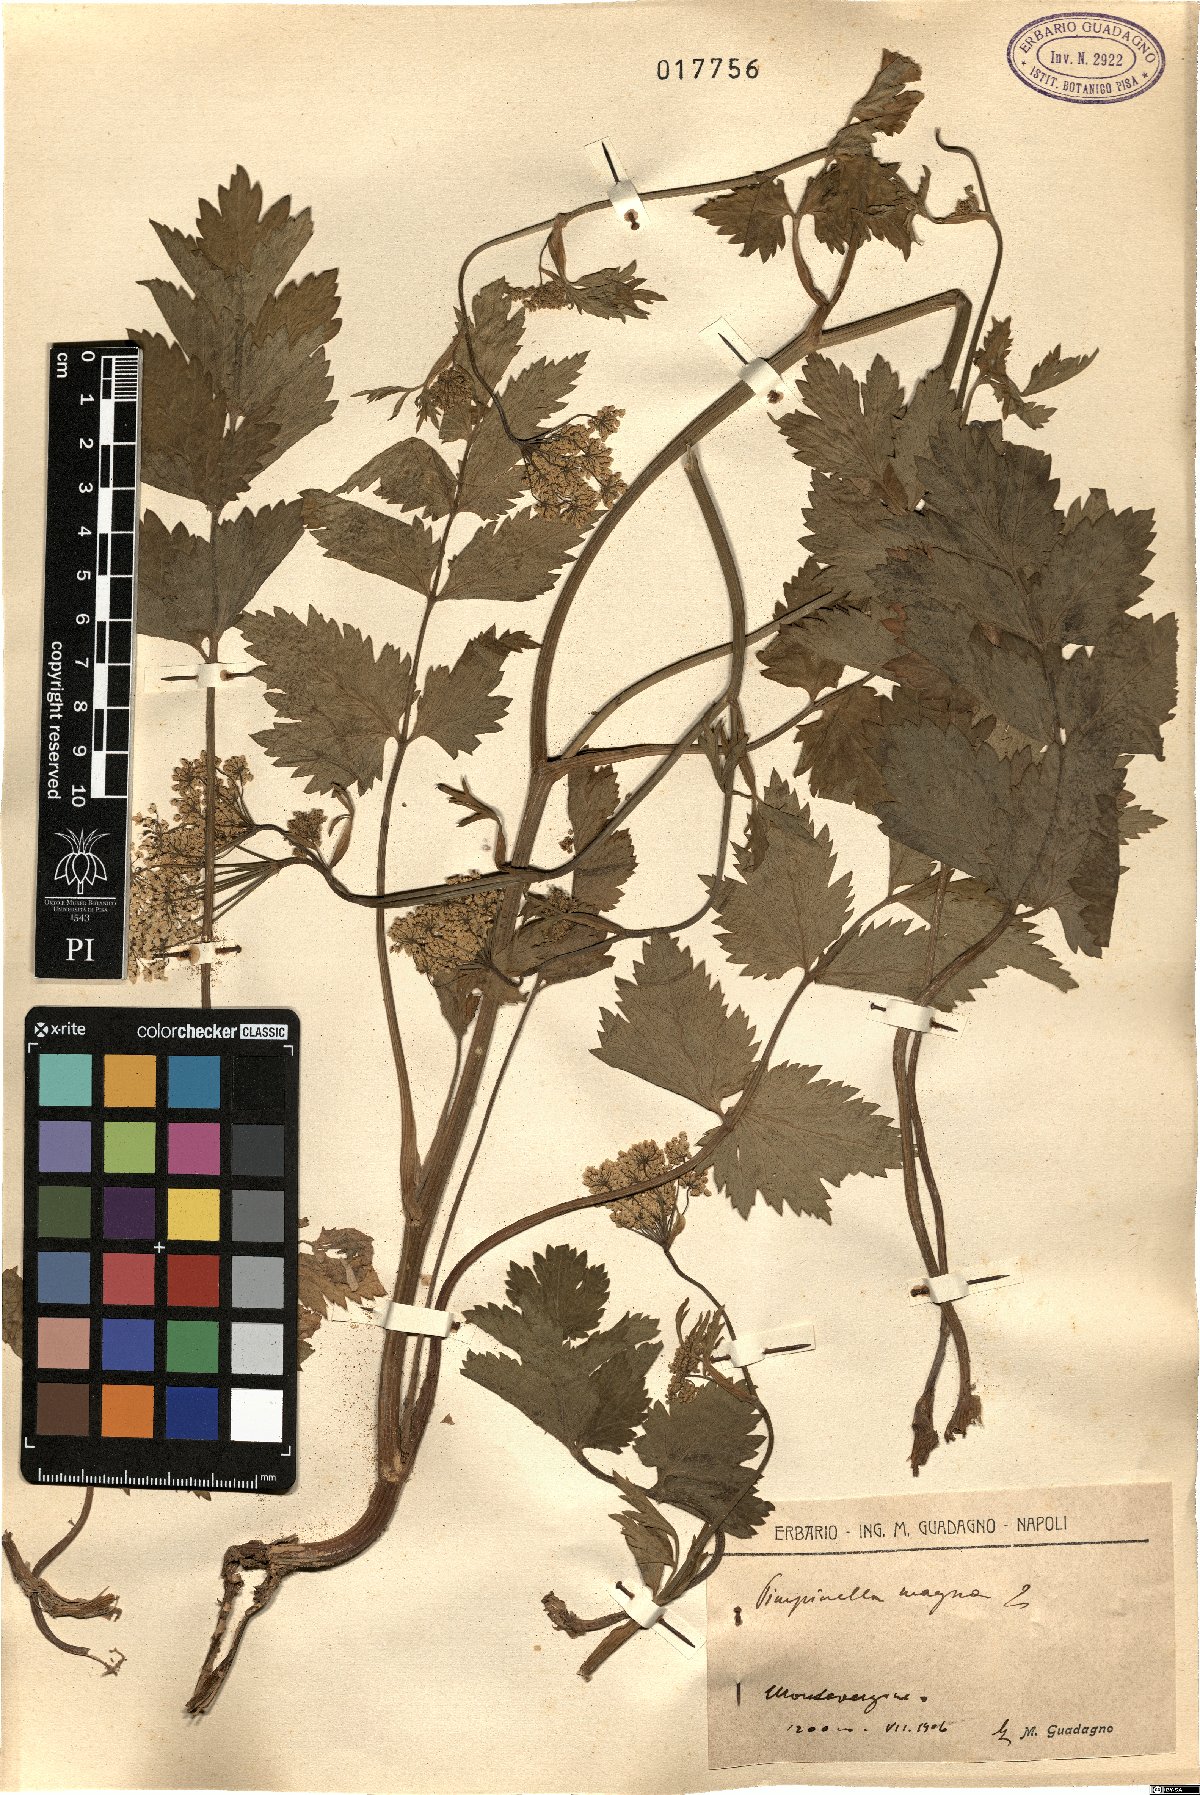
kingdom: Plantae
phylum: Tracheophyta
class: Magnoliopsida
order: Apiales
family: Apiaceae
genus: Pimpinella
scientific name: Pimpinella major
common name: Greater burnet-saxifrage
